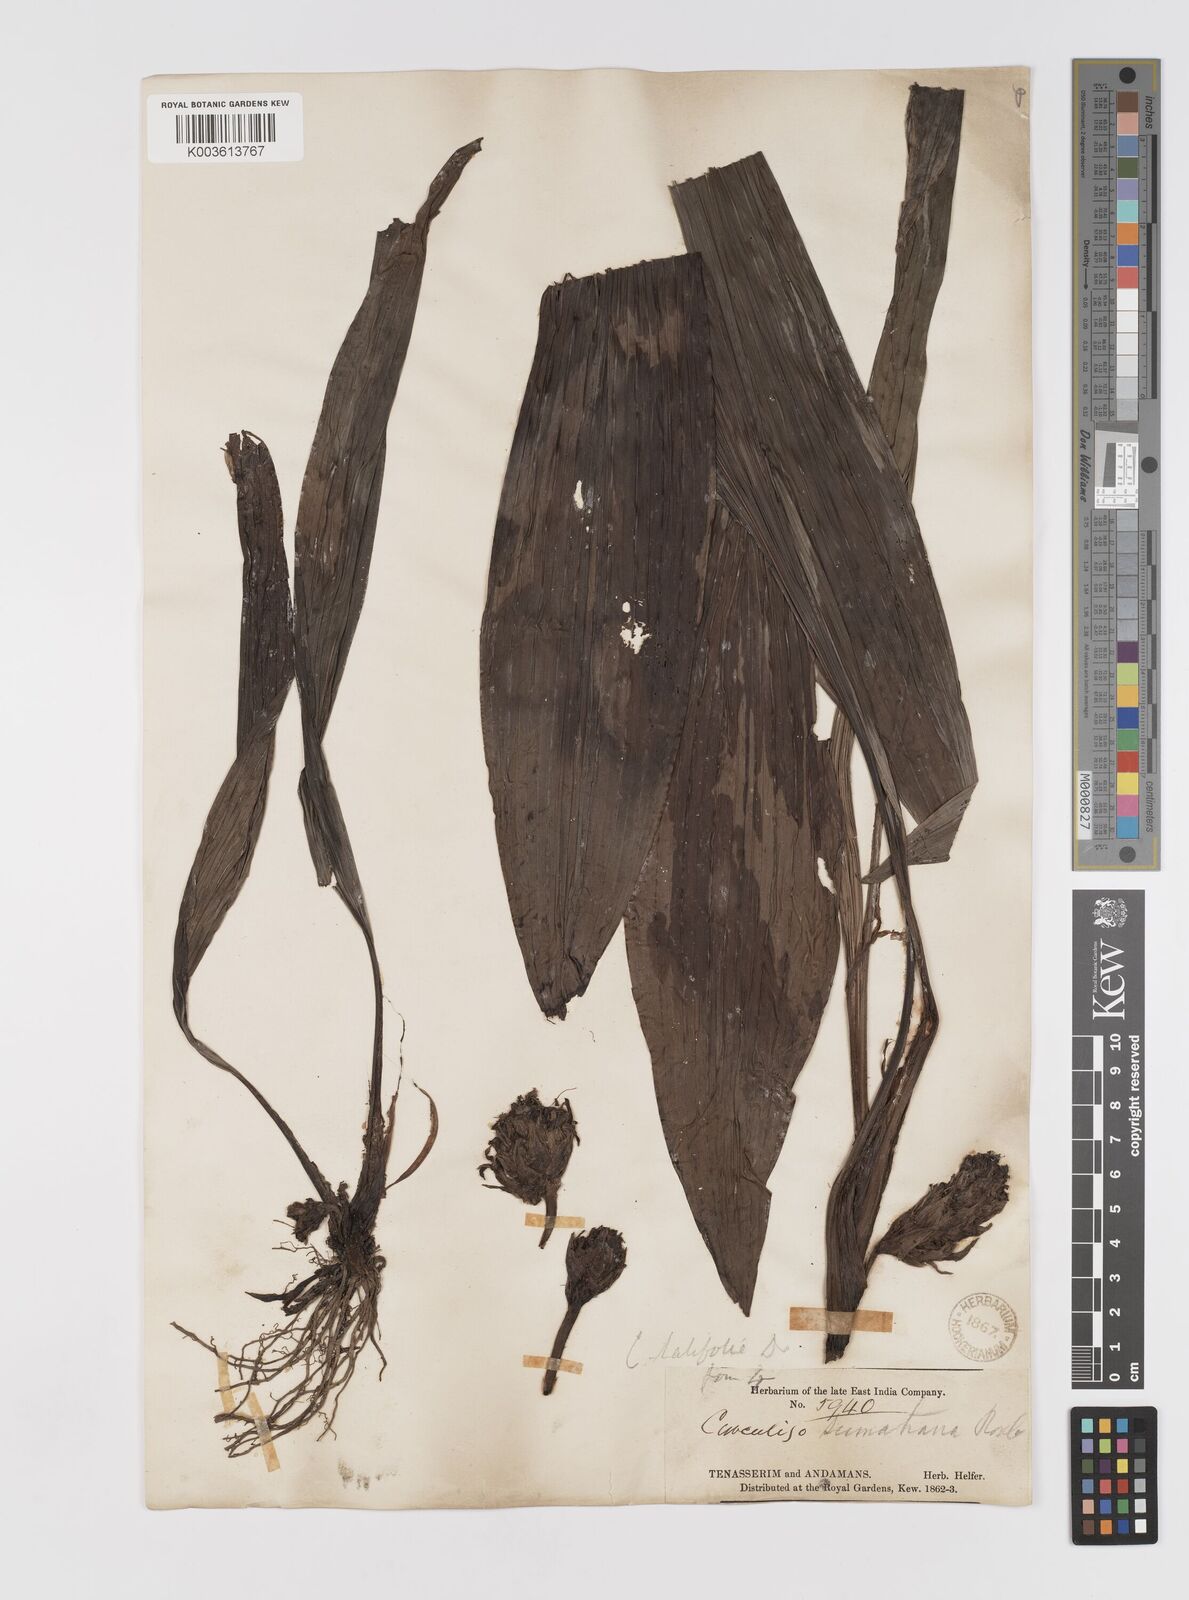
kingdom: Plantae
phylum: Tracheophyta
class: Liliopsida
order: Asparagales
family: Hypoxidaceae
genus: Curculigo
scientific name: Curculigo latifolia
